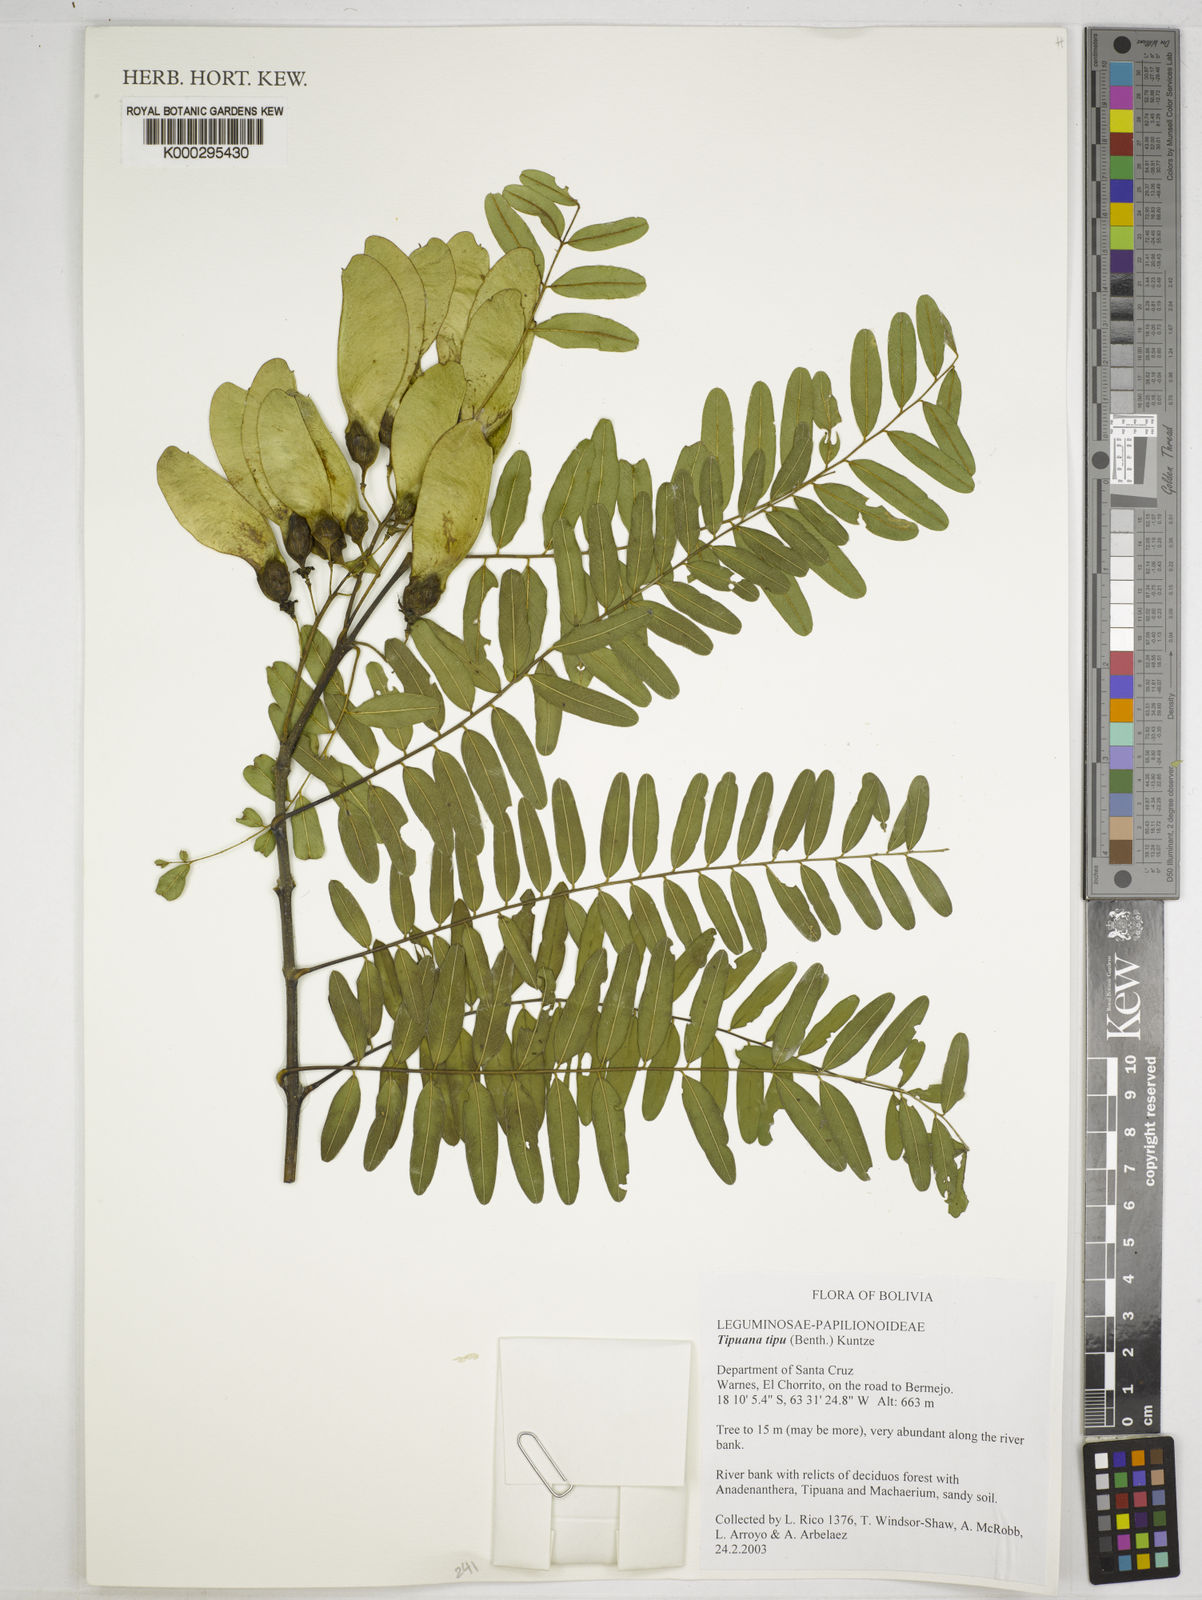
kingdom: Plantae
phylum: Tracheophyta
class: Magnoliopsida
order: Fabales
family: Fabaceae
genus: Tipuana
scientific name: Tipuana tipu
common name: Tiputree
